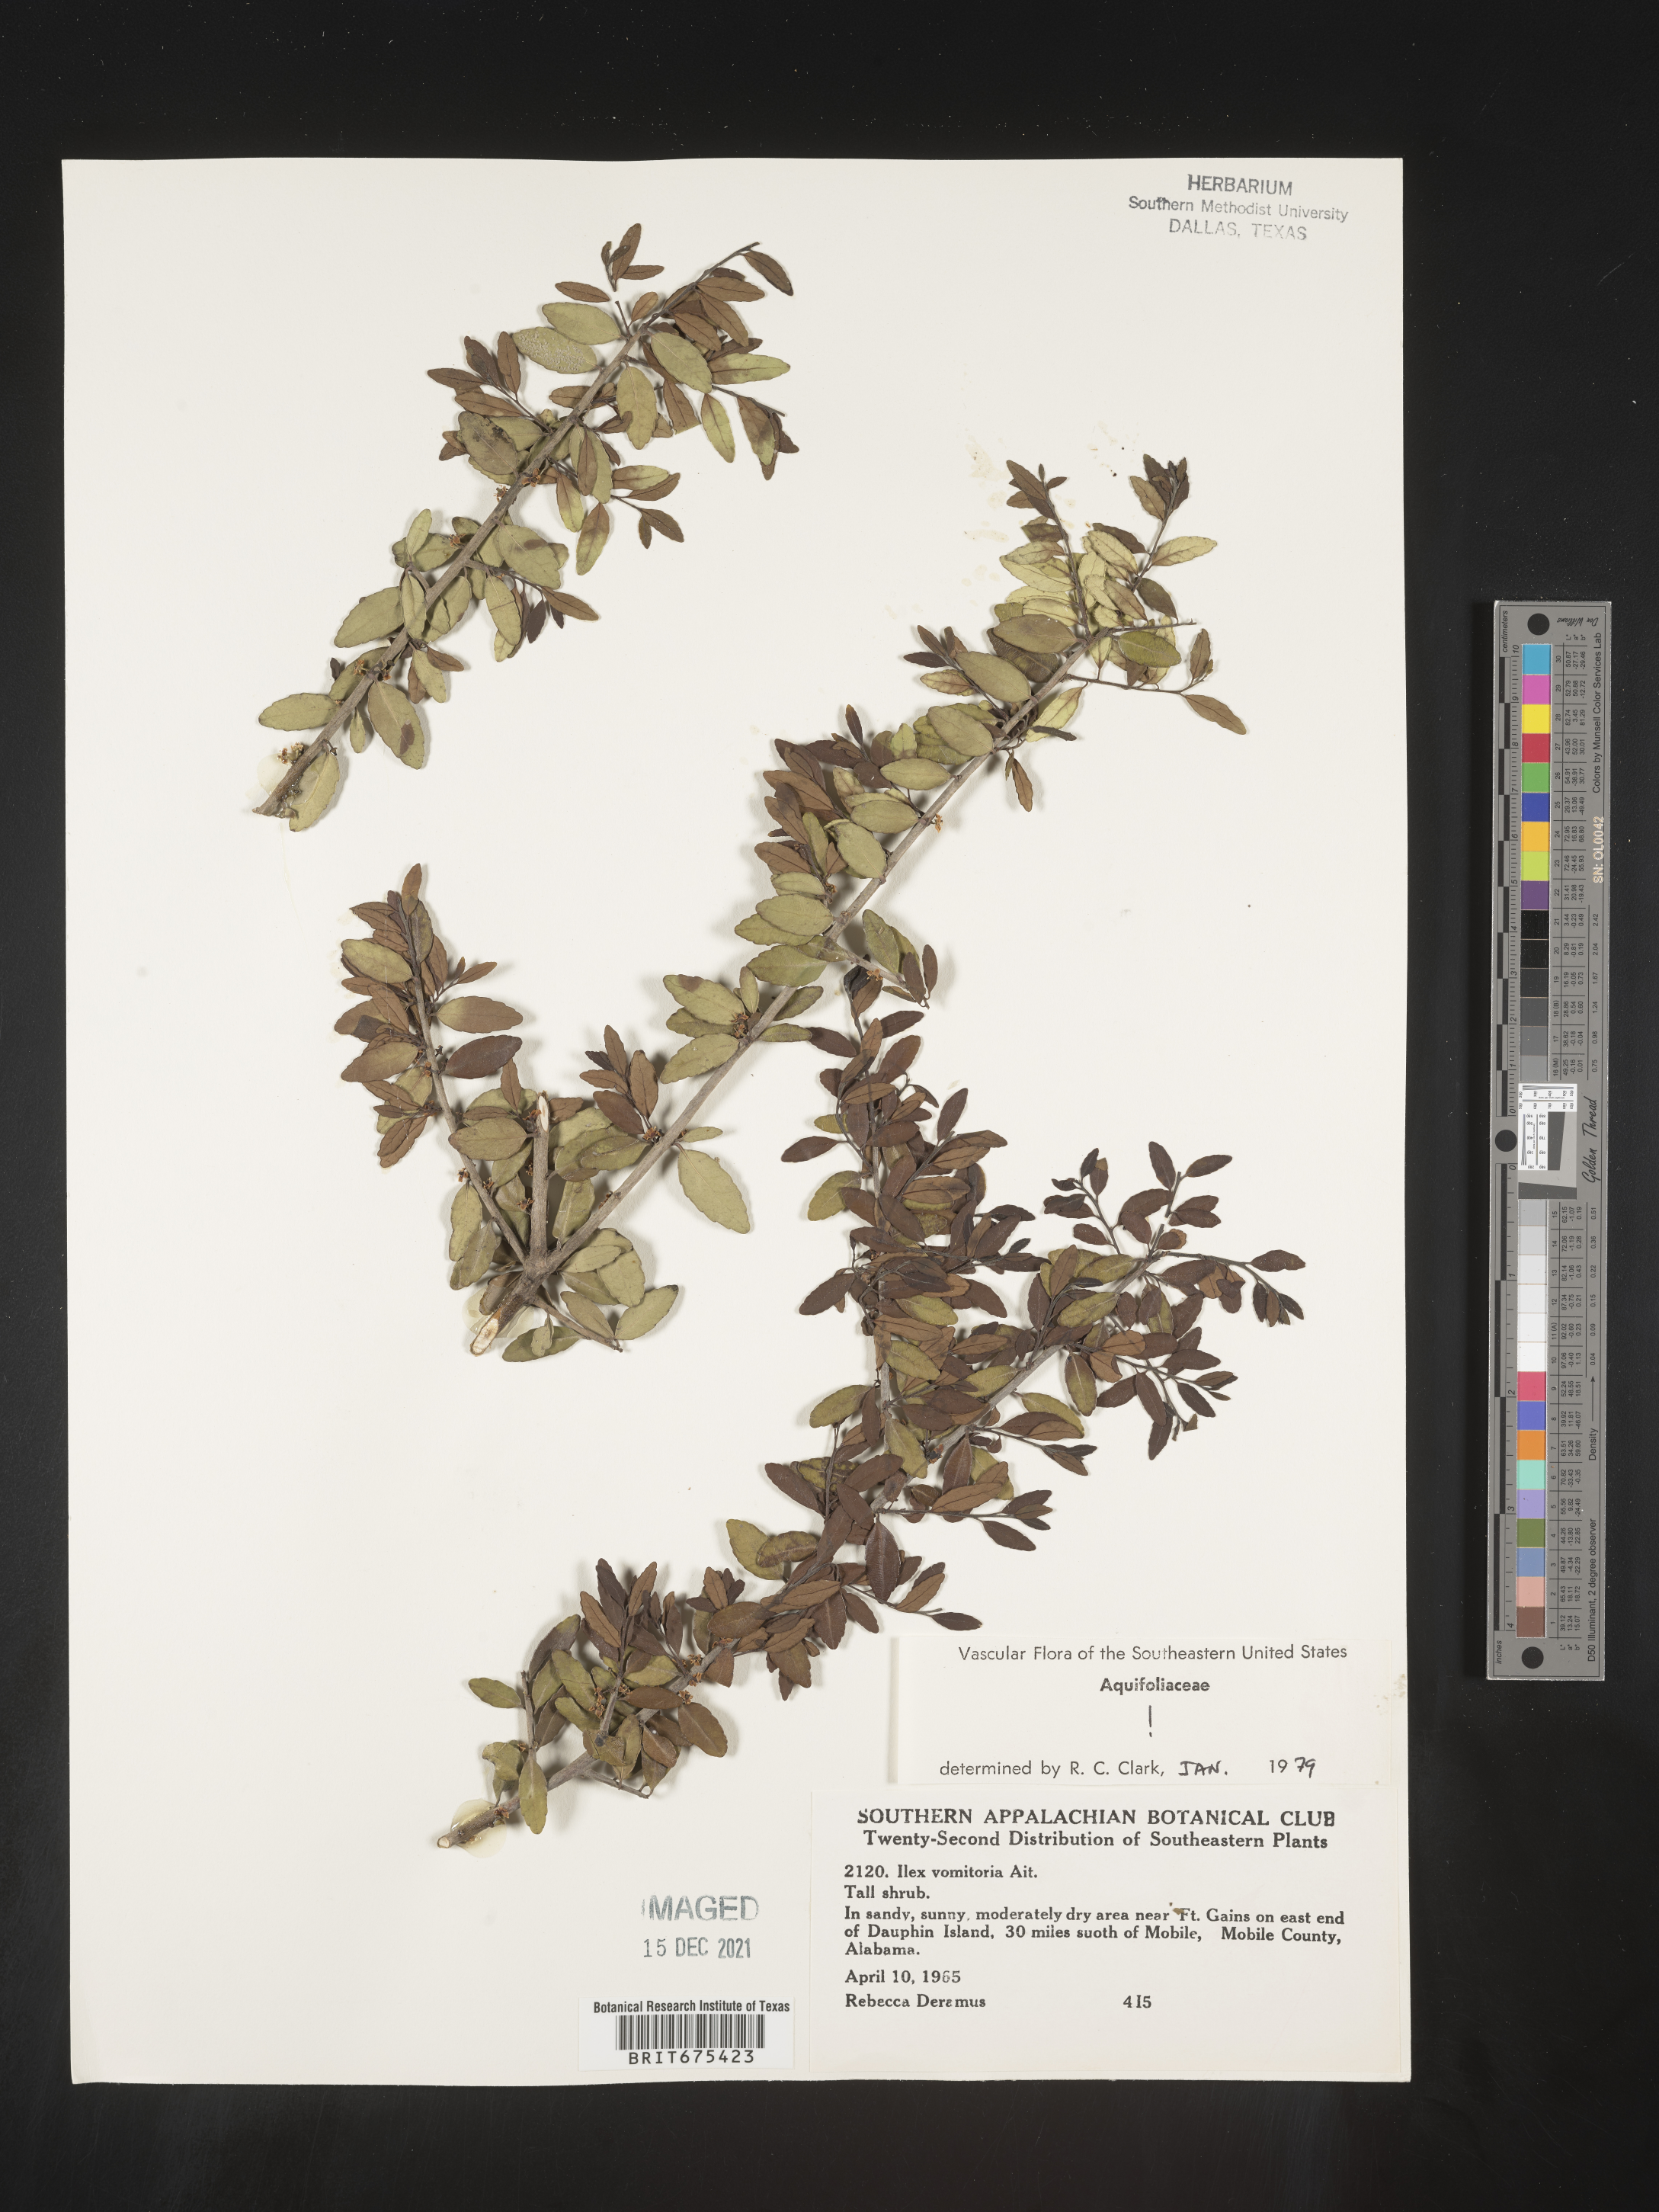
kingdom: Plantae
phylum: Tracheophyta
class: Magnoliopsida
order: Aquifoliales
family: Aquifoliaceae
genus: Ilex
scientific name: Ilex vomitoria
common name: Yaupon holly
